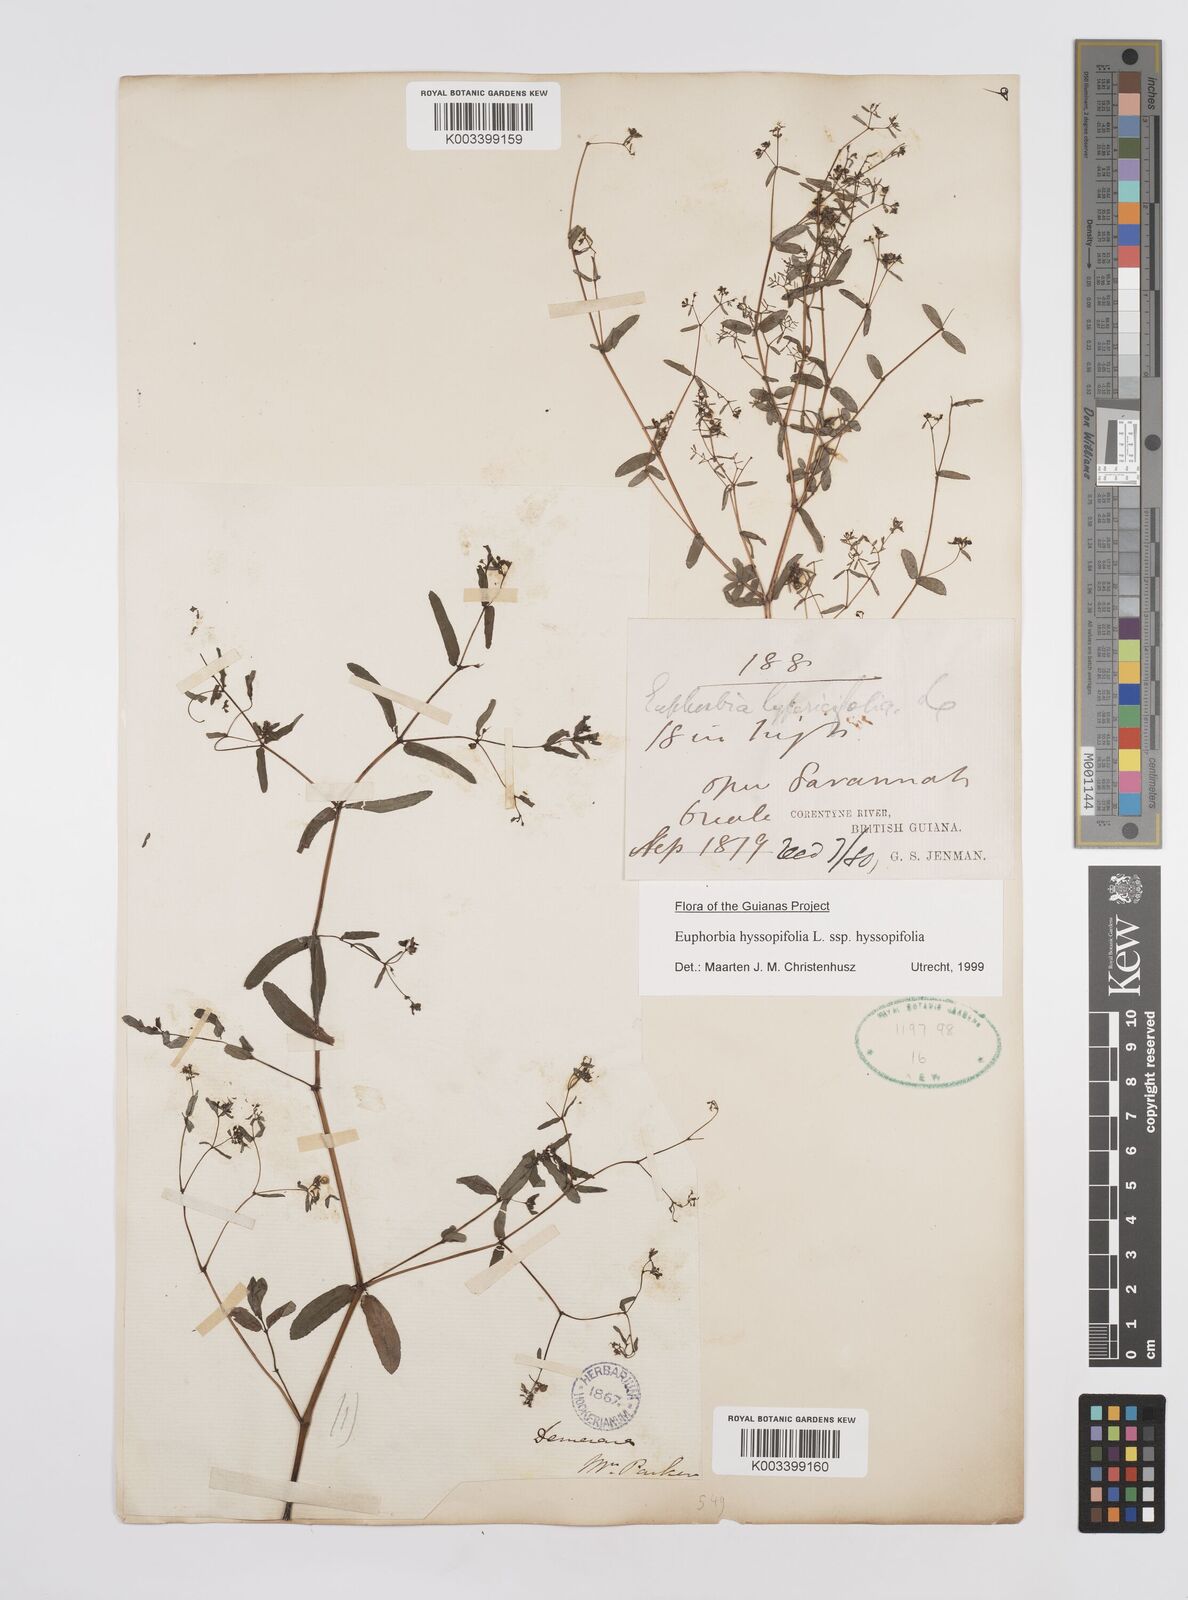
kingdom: Plantae
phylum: Tracheophyta
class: Magnoliopsida
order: Malpighiales
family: Euphorbiaceae
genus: Euphorbia
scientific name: Euphorbia hyssopifolia
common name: Hyssopleaf sandmat
